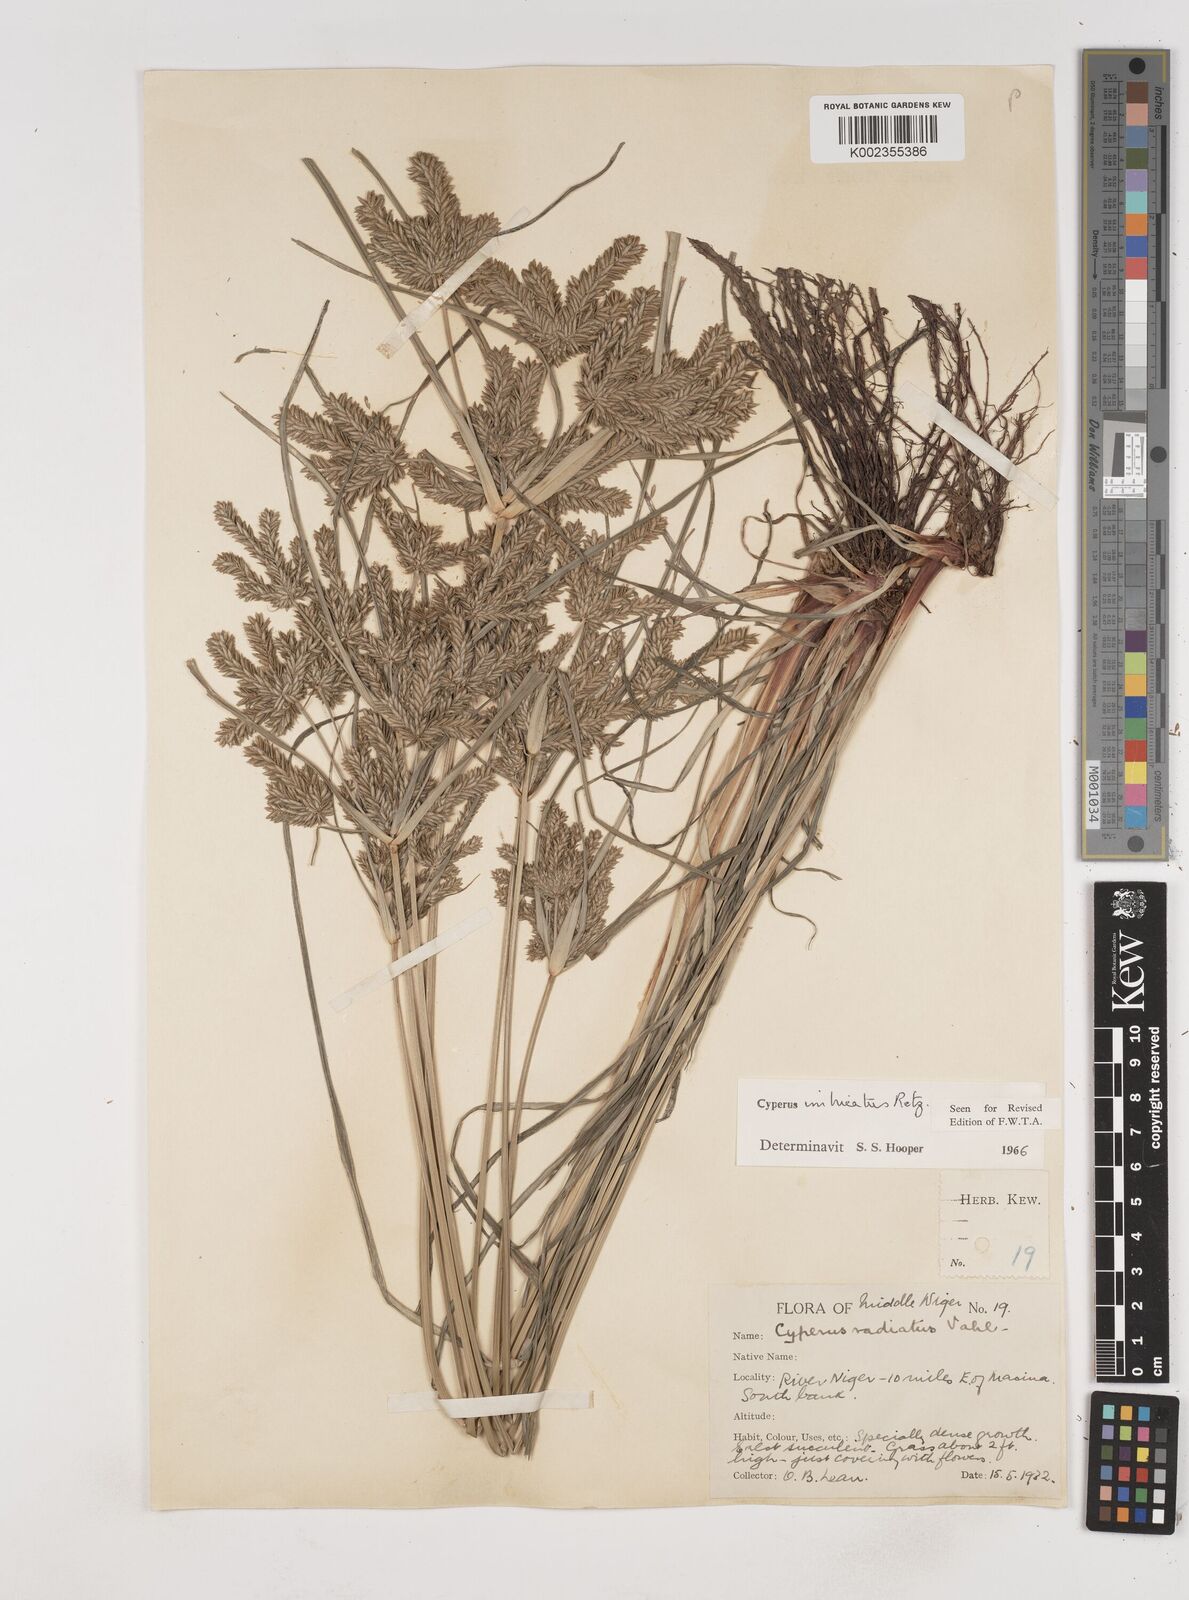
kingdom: Plantae
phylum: Tracheophyta
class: Liliopsida
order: Poales
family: Cyperaceae
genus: Cyperus
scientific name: Cyperus imbricatus
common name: Shingle flatsedge
